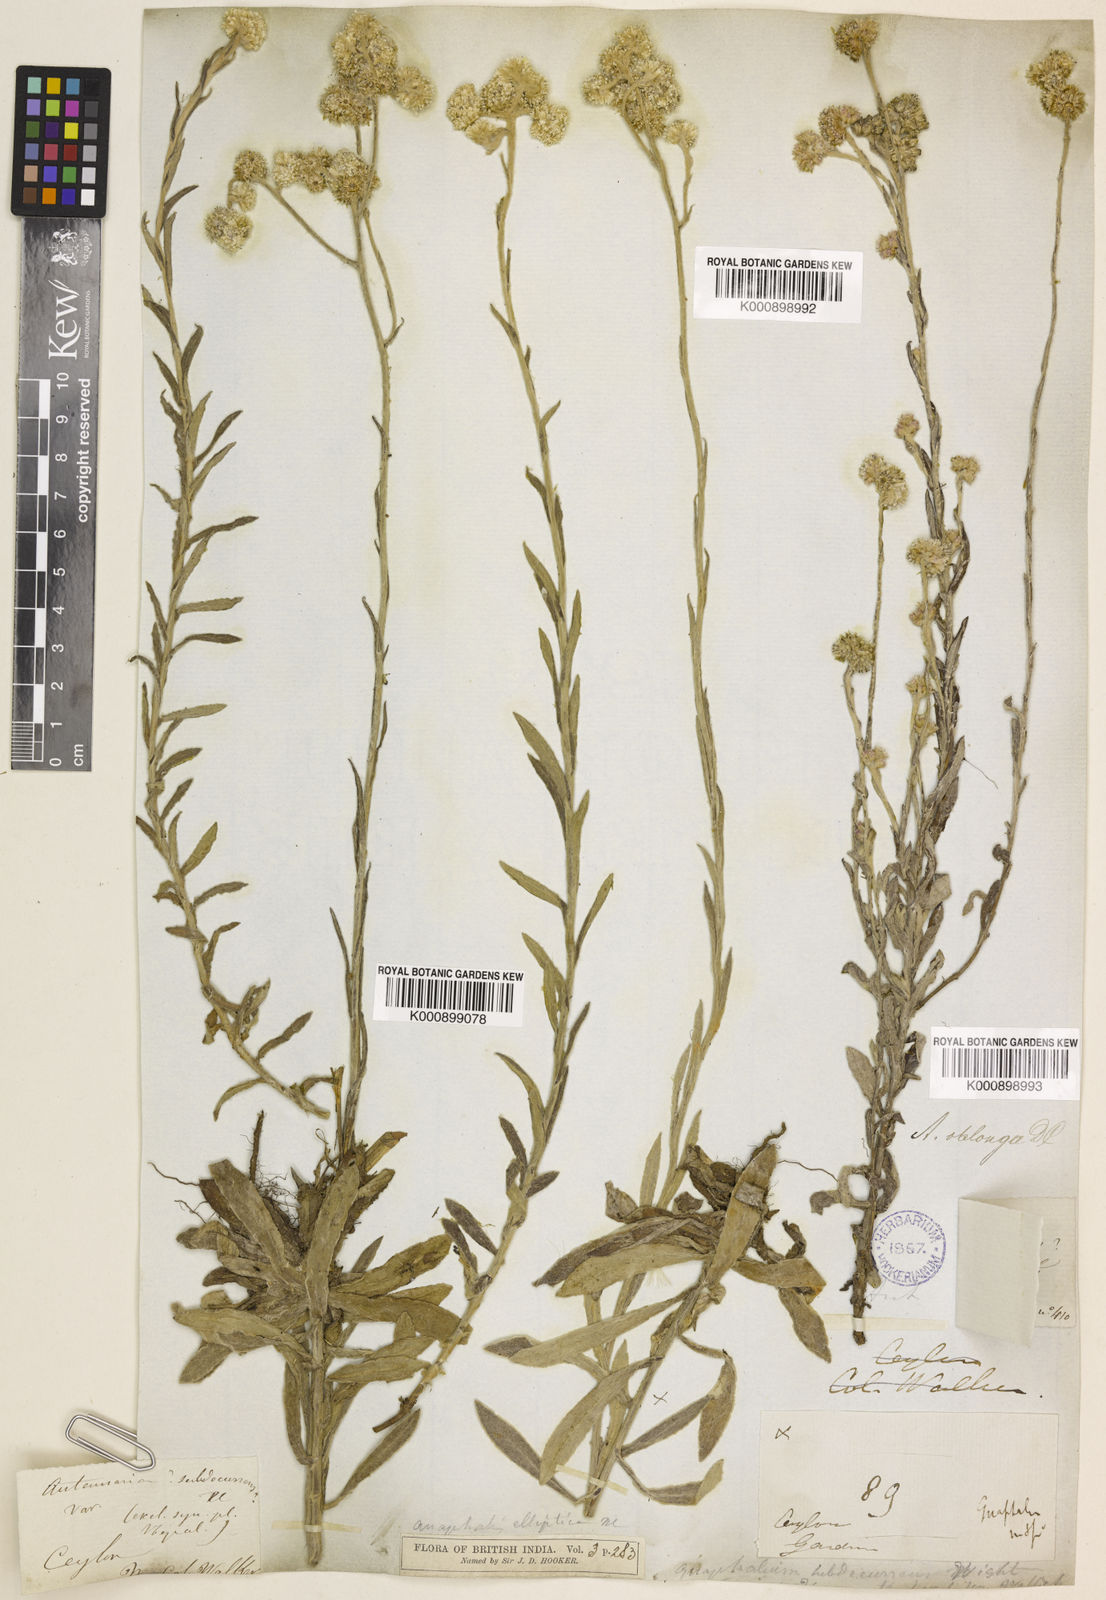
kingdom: Plantae
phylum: Tracheophyta
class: Magnoliopsida
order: Asterales
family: Asteraceae
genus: Anaphalis
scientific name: Anaphalis subdecurrens
